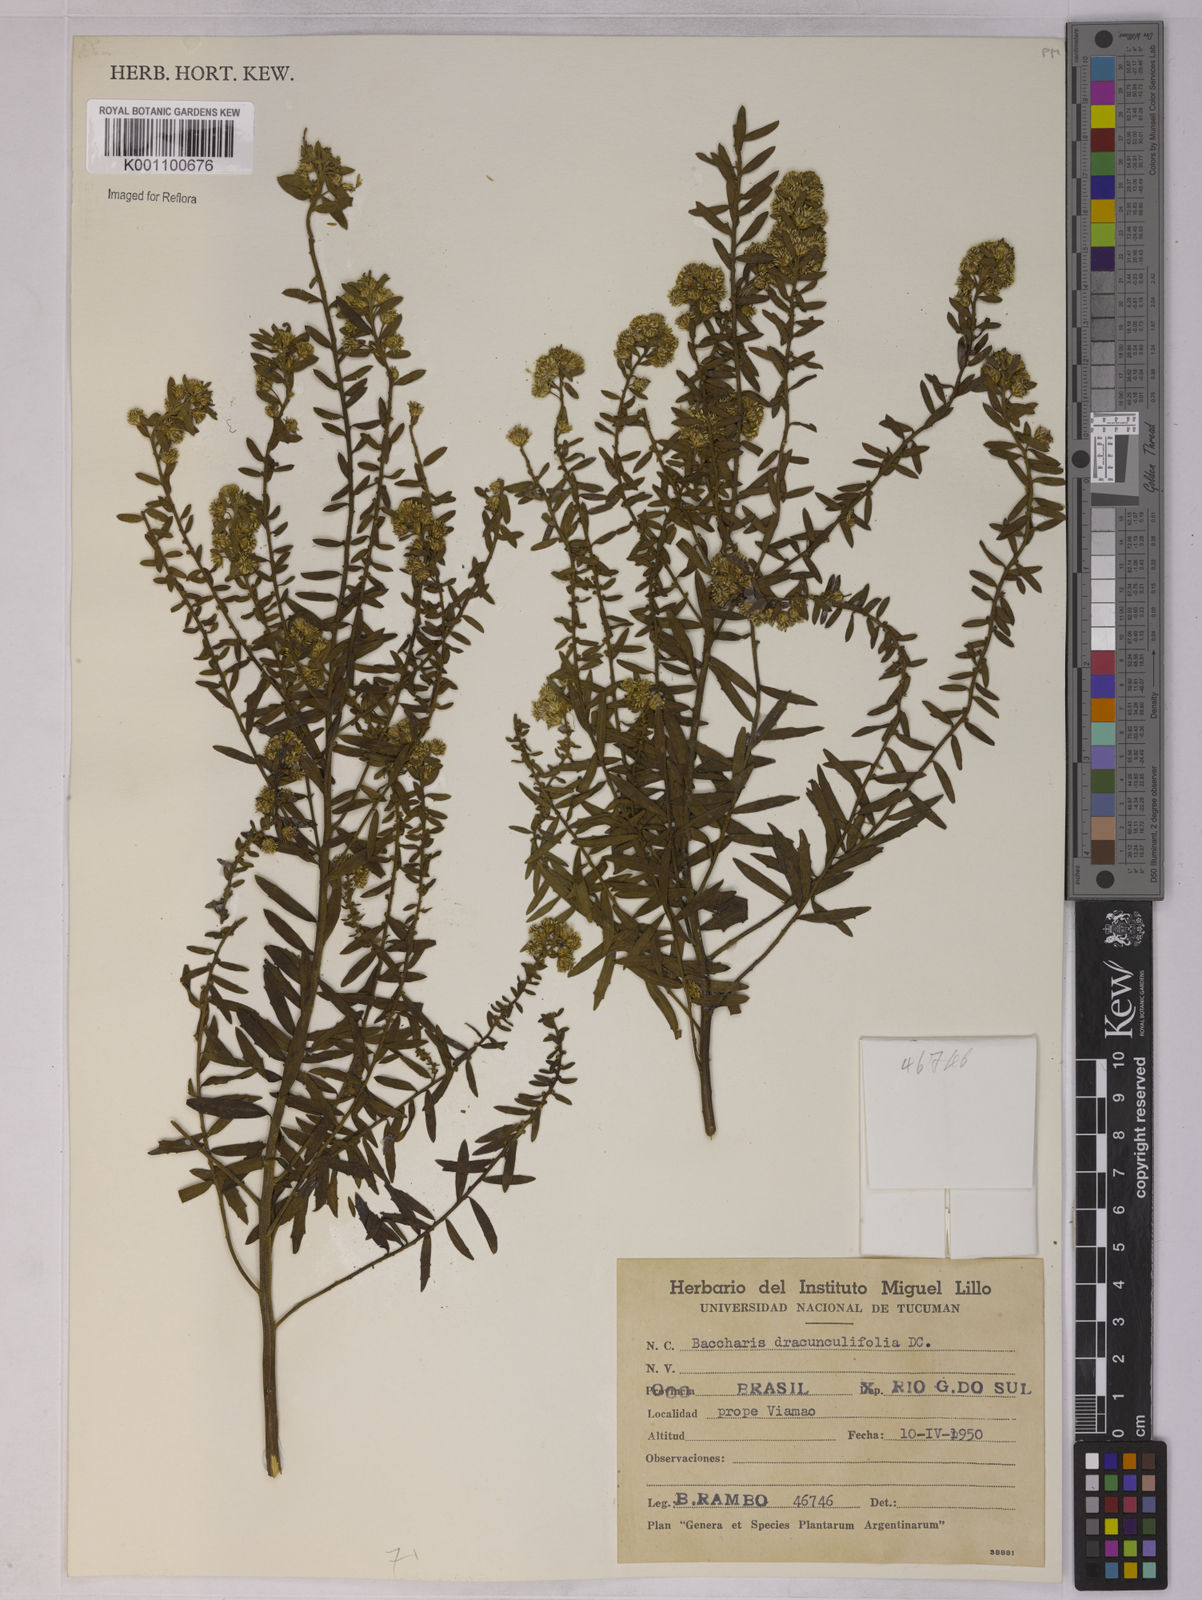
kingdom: Plantae
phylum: Tracheophyta
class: Magnoliopsida
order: Asterales
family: Asteraceae
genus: Baccharis
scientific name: Baccharis dracunculifolia
